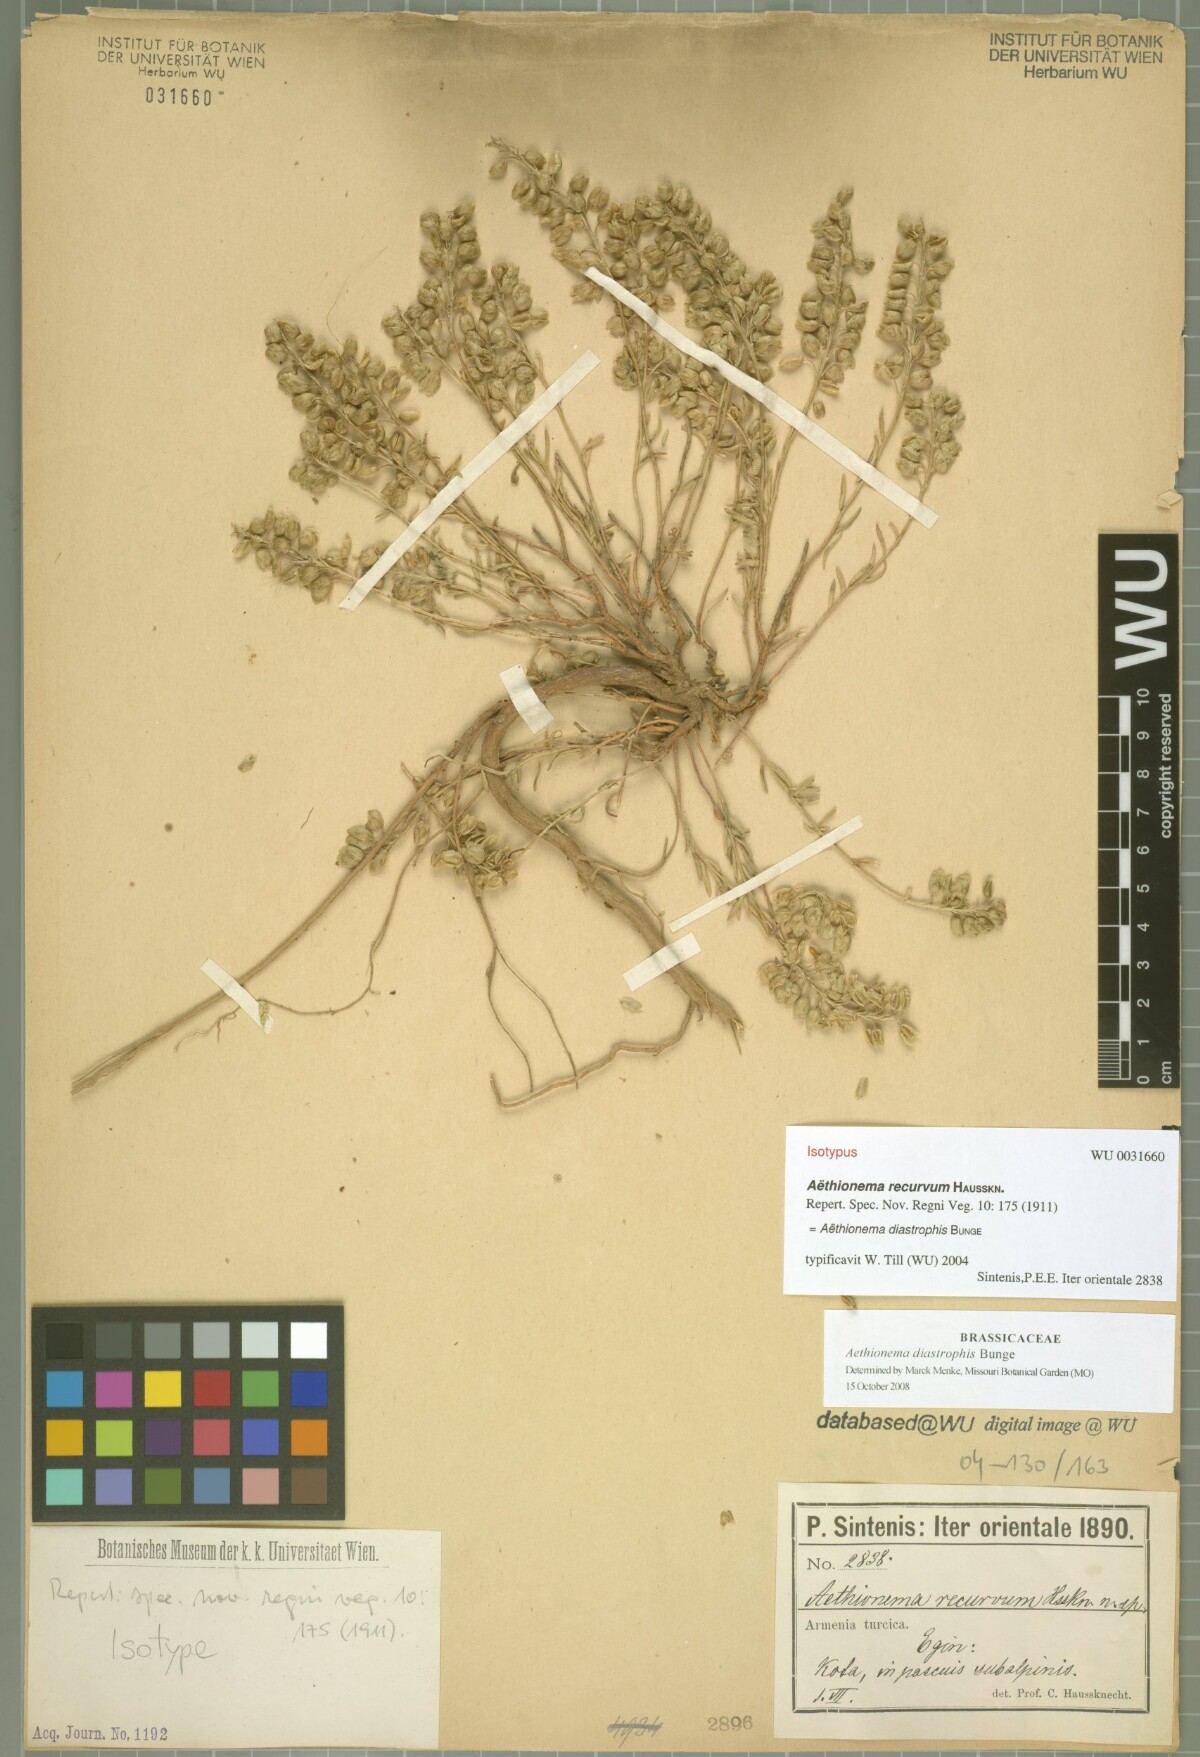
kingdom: Plantae
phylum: Tracheophyta
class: Magnoliopsida
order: Brassicales
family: Brassicaceae
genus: Aethionema
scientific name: Aethionema diastrophis
